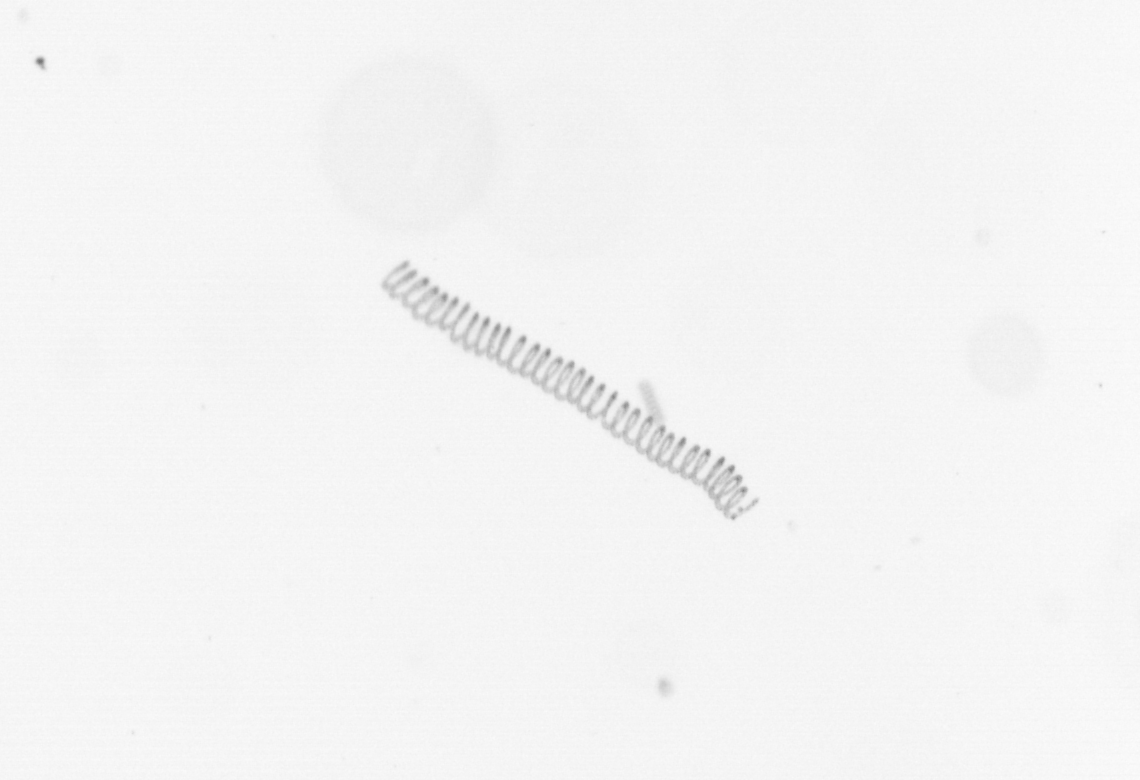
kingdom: Chromista
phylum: Ochrophyta
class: Bacillariophyceae
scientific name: Bacillariophyceae
